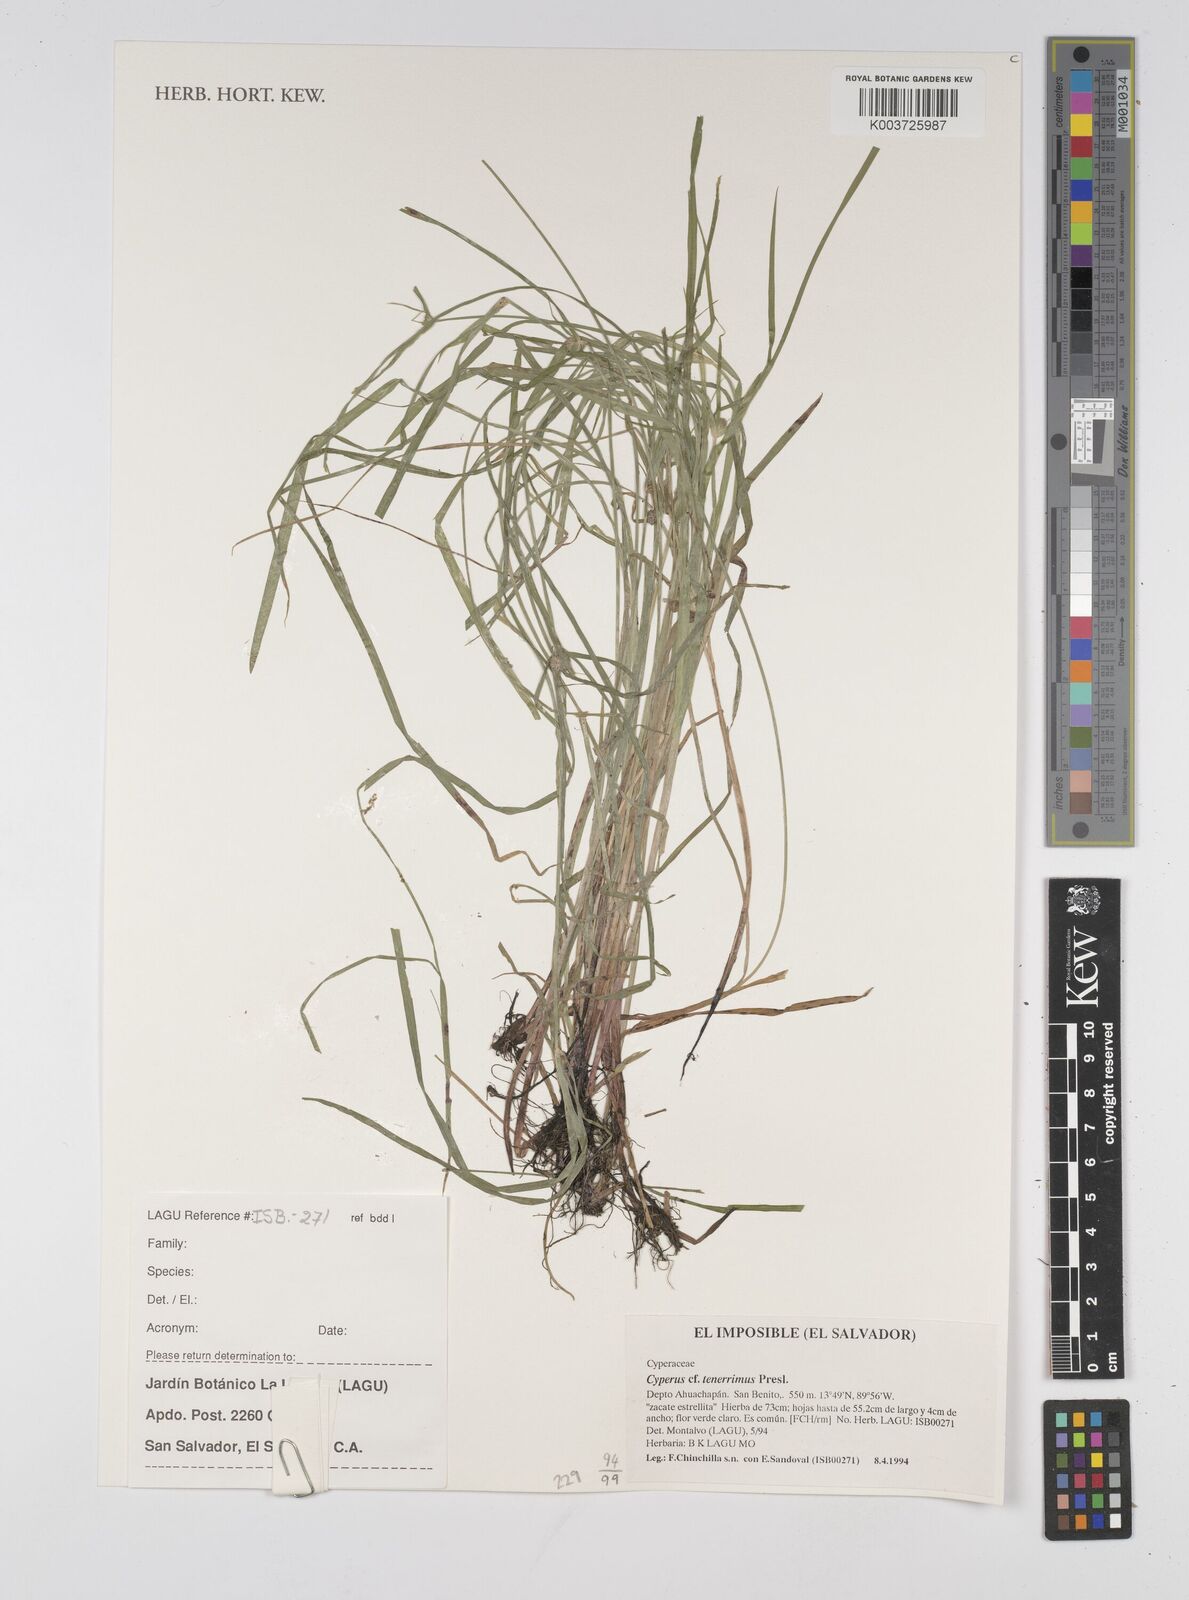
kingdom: Plantae
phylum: Tracheophyta
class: Liliopsida
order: Poales
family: Cyperaceae
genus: Cyperus
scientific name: Cyperus tenerrimus
